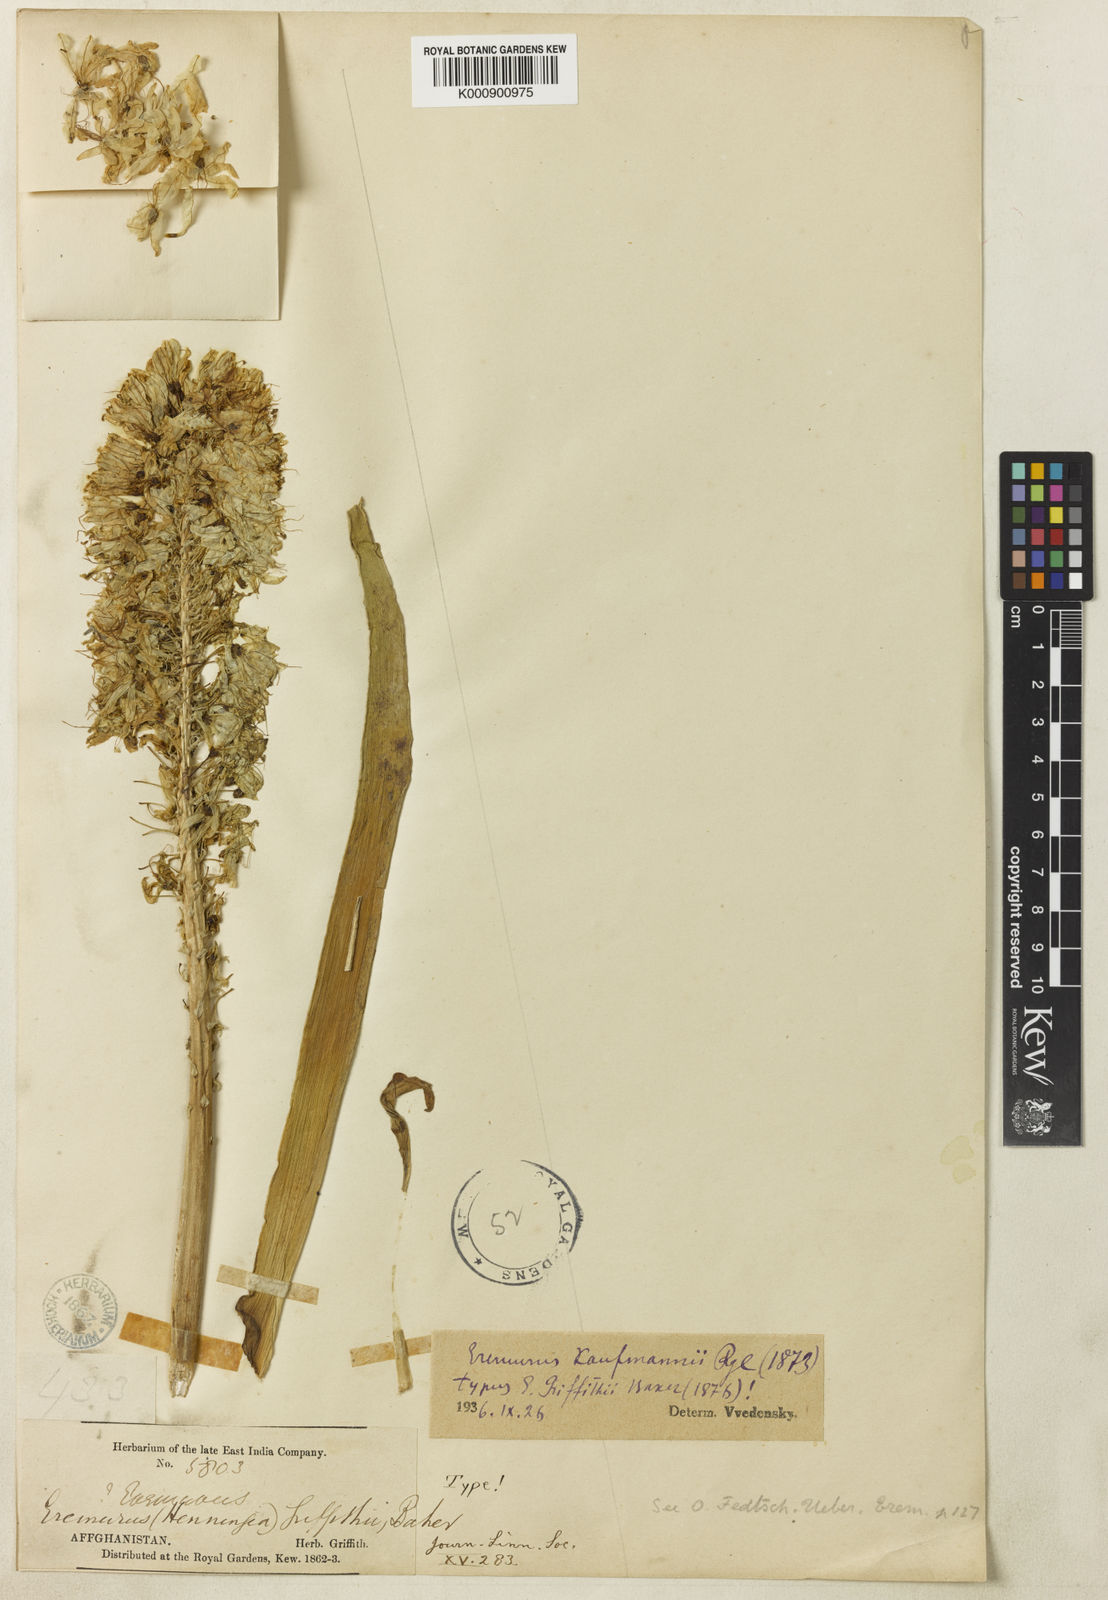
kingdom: Plantae
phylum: Tracheophyta
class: Liliopsida
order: Asparagales
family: Asphodelaceae
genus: Eremurus
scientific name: Eremurus kaufmannii
